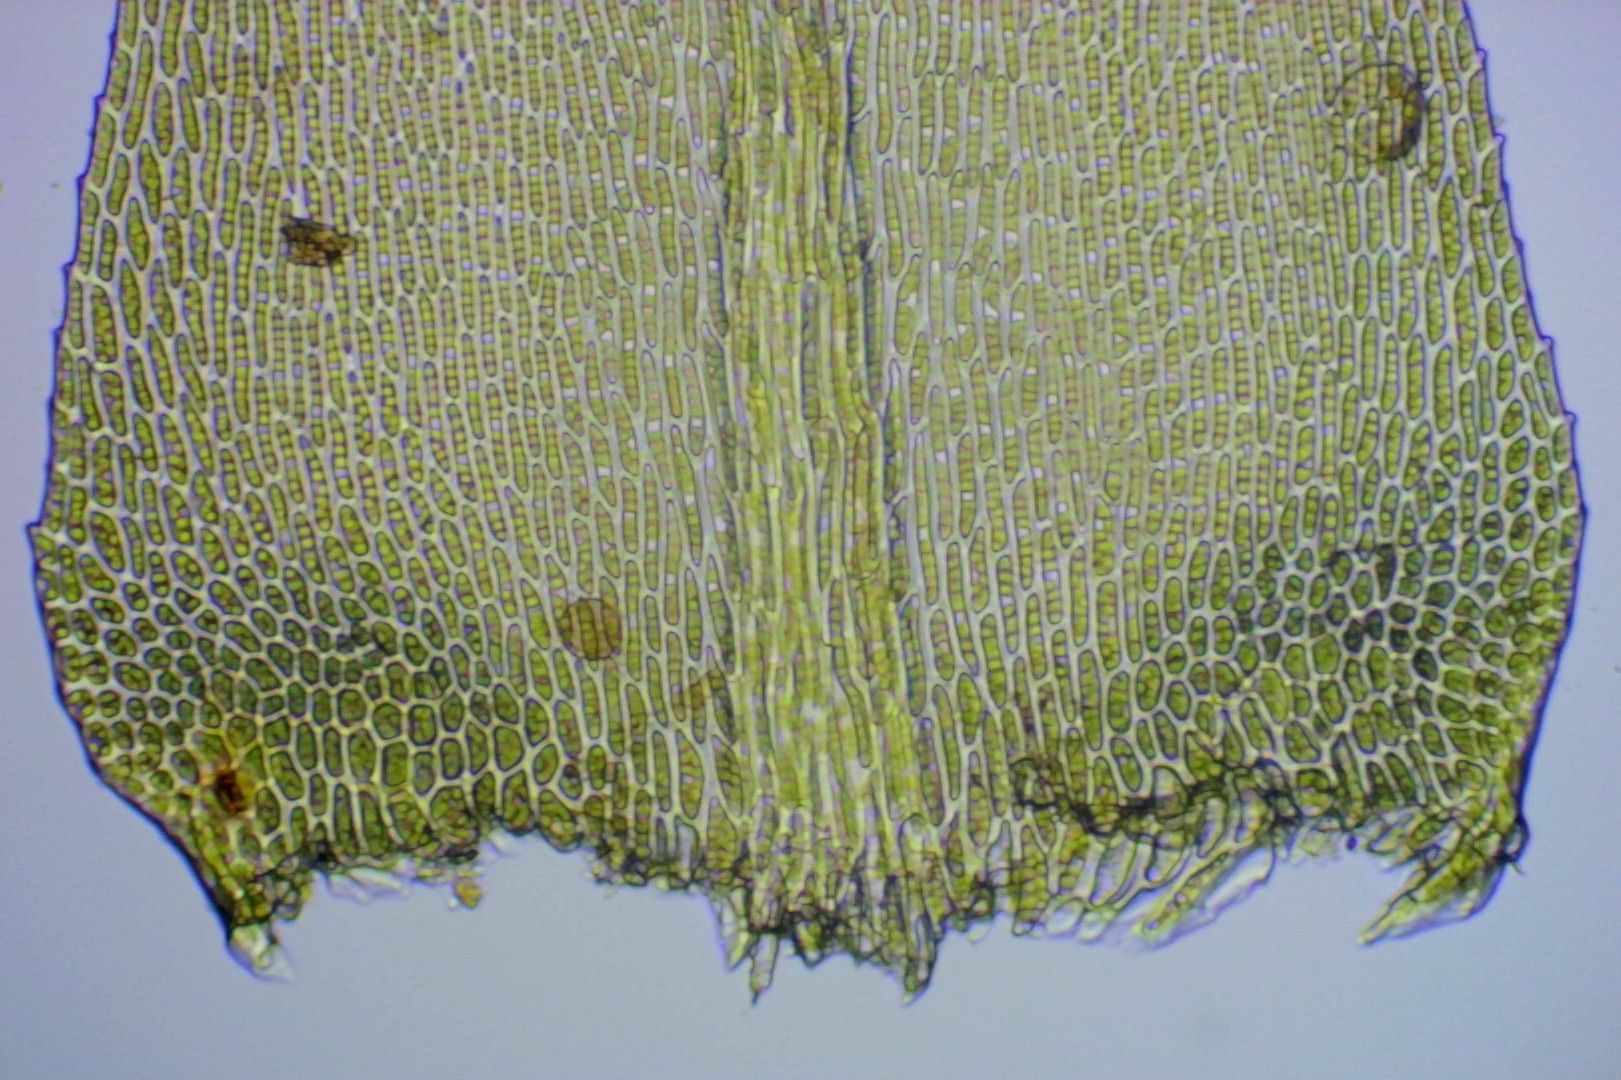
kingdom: Plantae
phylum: Bryophyta
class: Bryopsida
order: Hypnales
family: Lembophyllaceae
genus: Pseudisothecium
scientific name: Pseudisothecium myosuroides
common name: Slank stammemos
